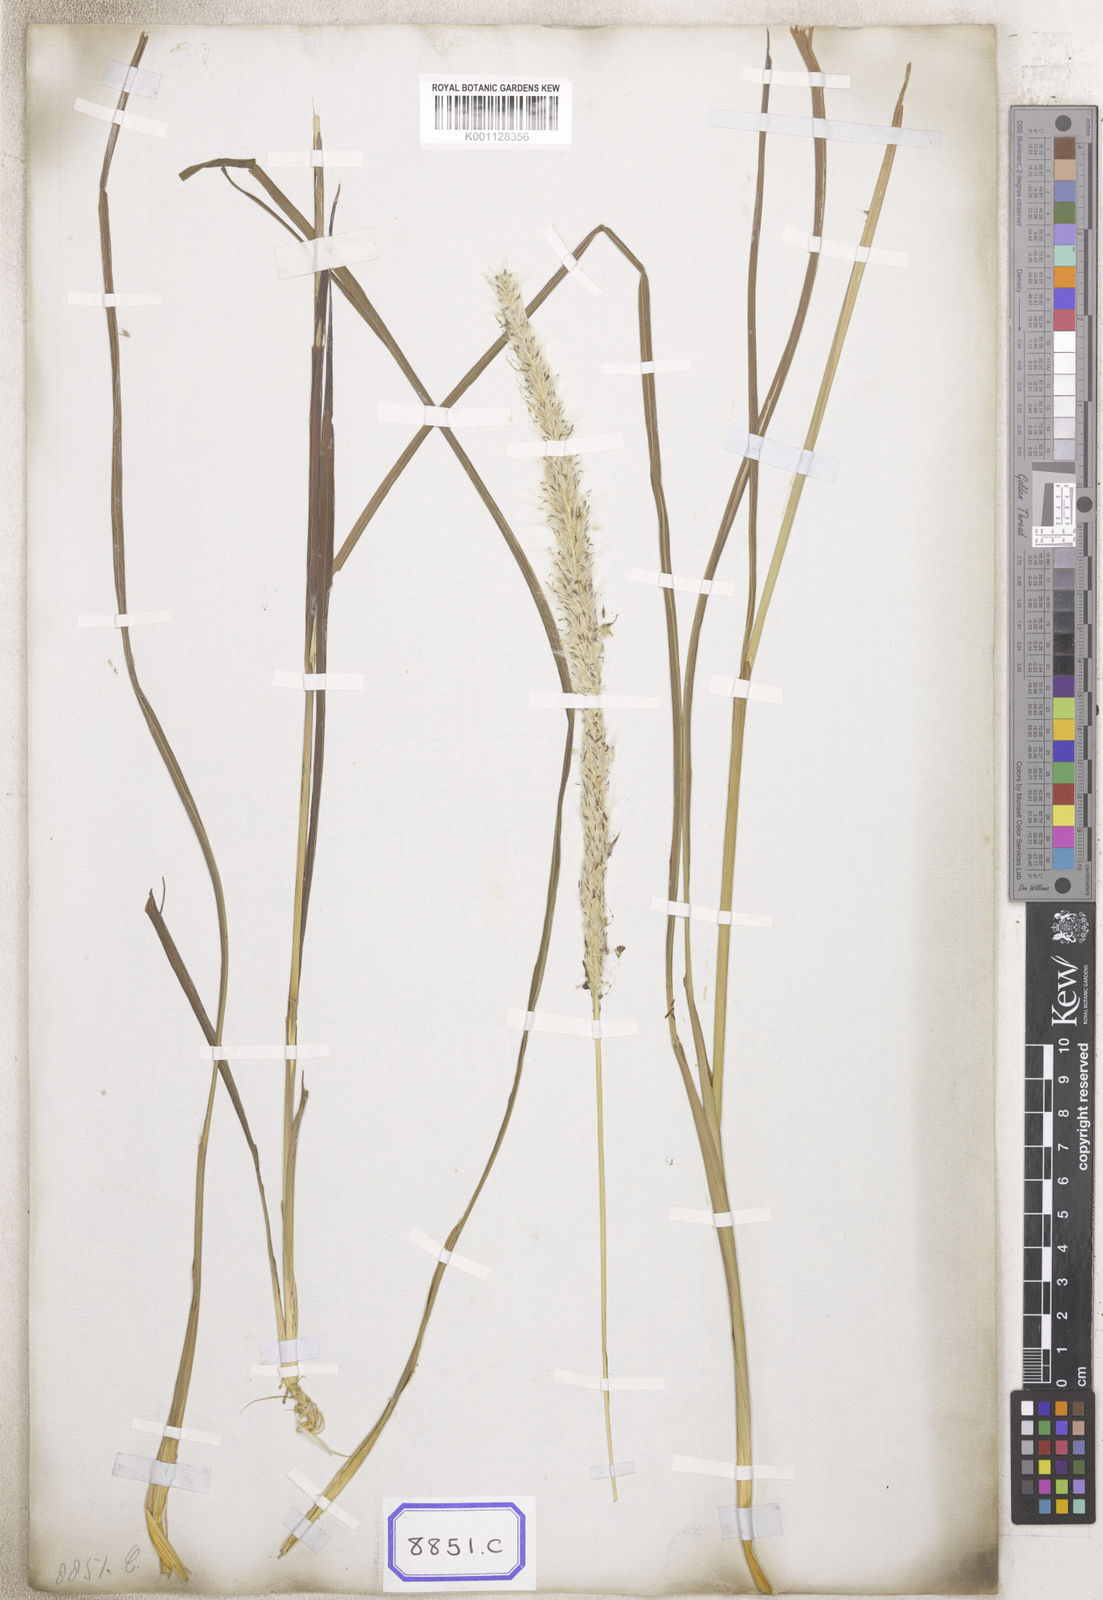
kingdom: Plantae
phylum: Tracheophyta
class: Liliopsida
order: Poales
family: Poaceae
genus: Imperata
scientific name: Imperata
